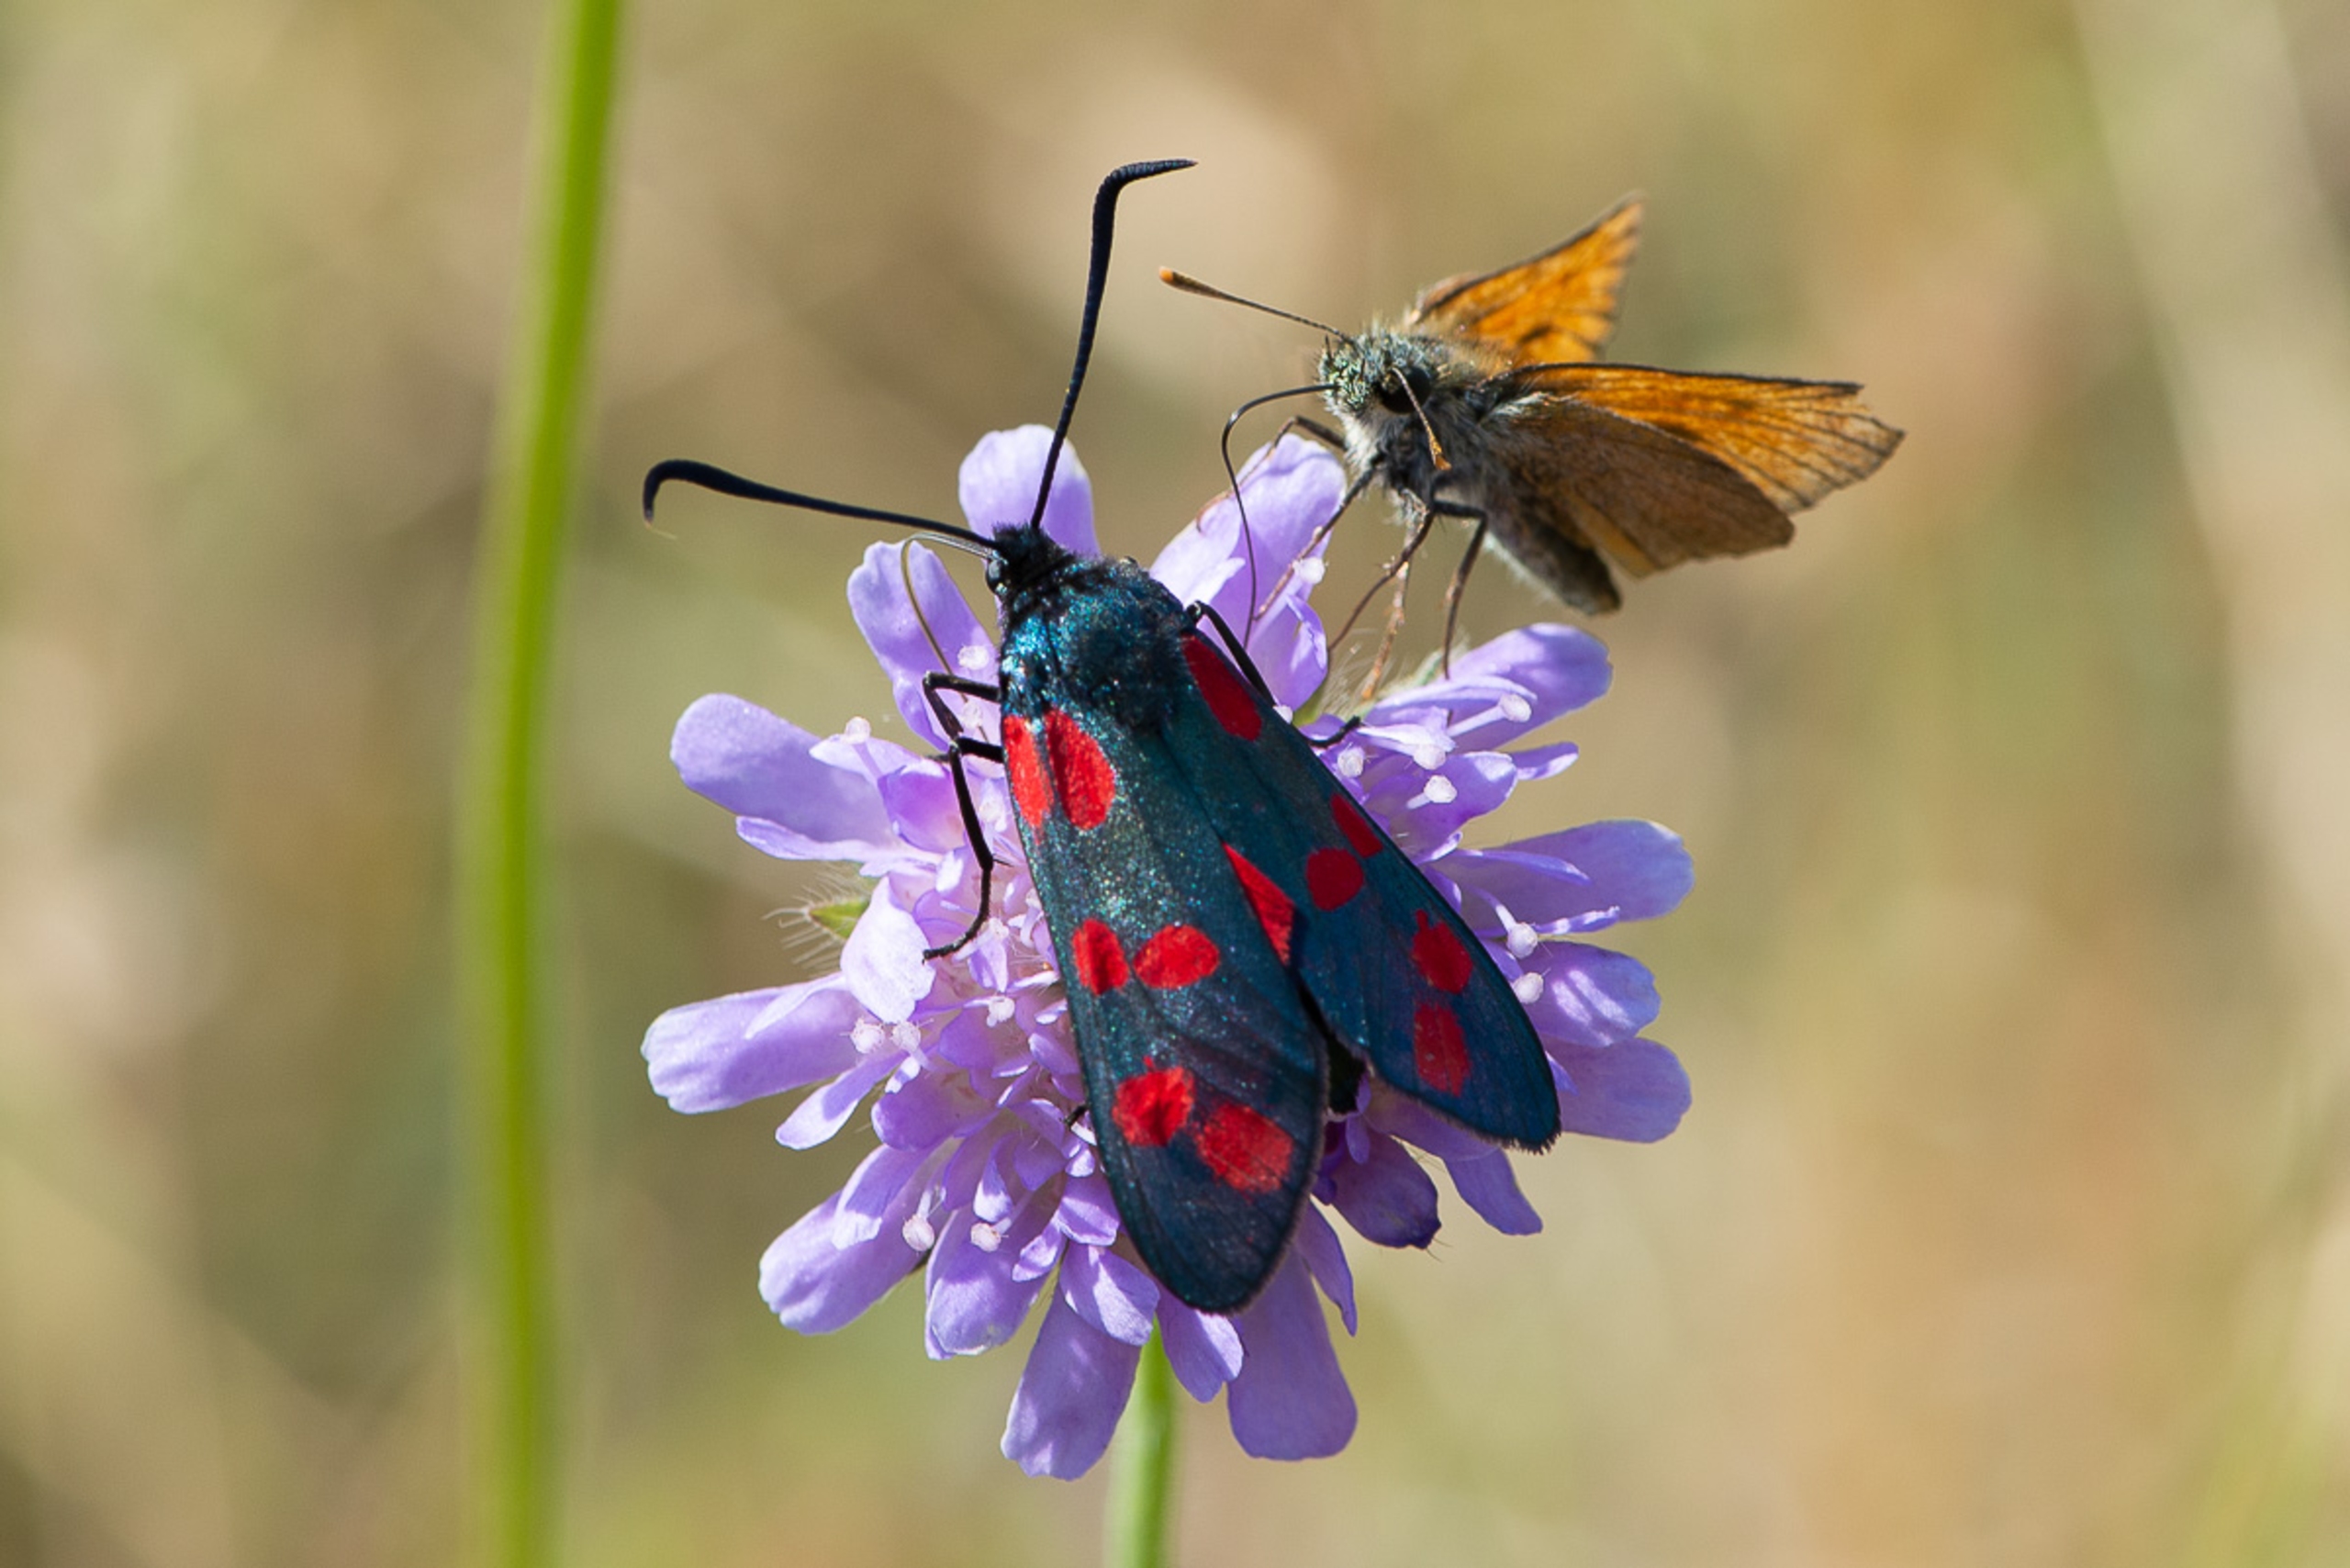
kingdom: Animalia
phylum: Arthropoda
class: Insecta
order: Lepidoptera
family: Zygaenidae
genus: Zygaena
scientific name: Zygaena filipendulae
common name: Seksplettet køllesværmer
